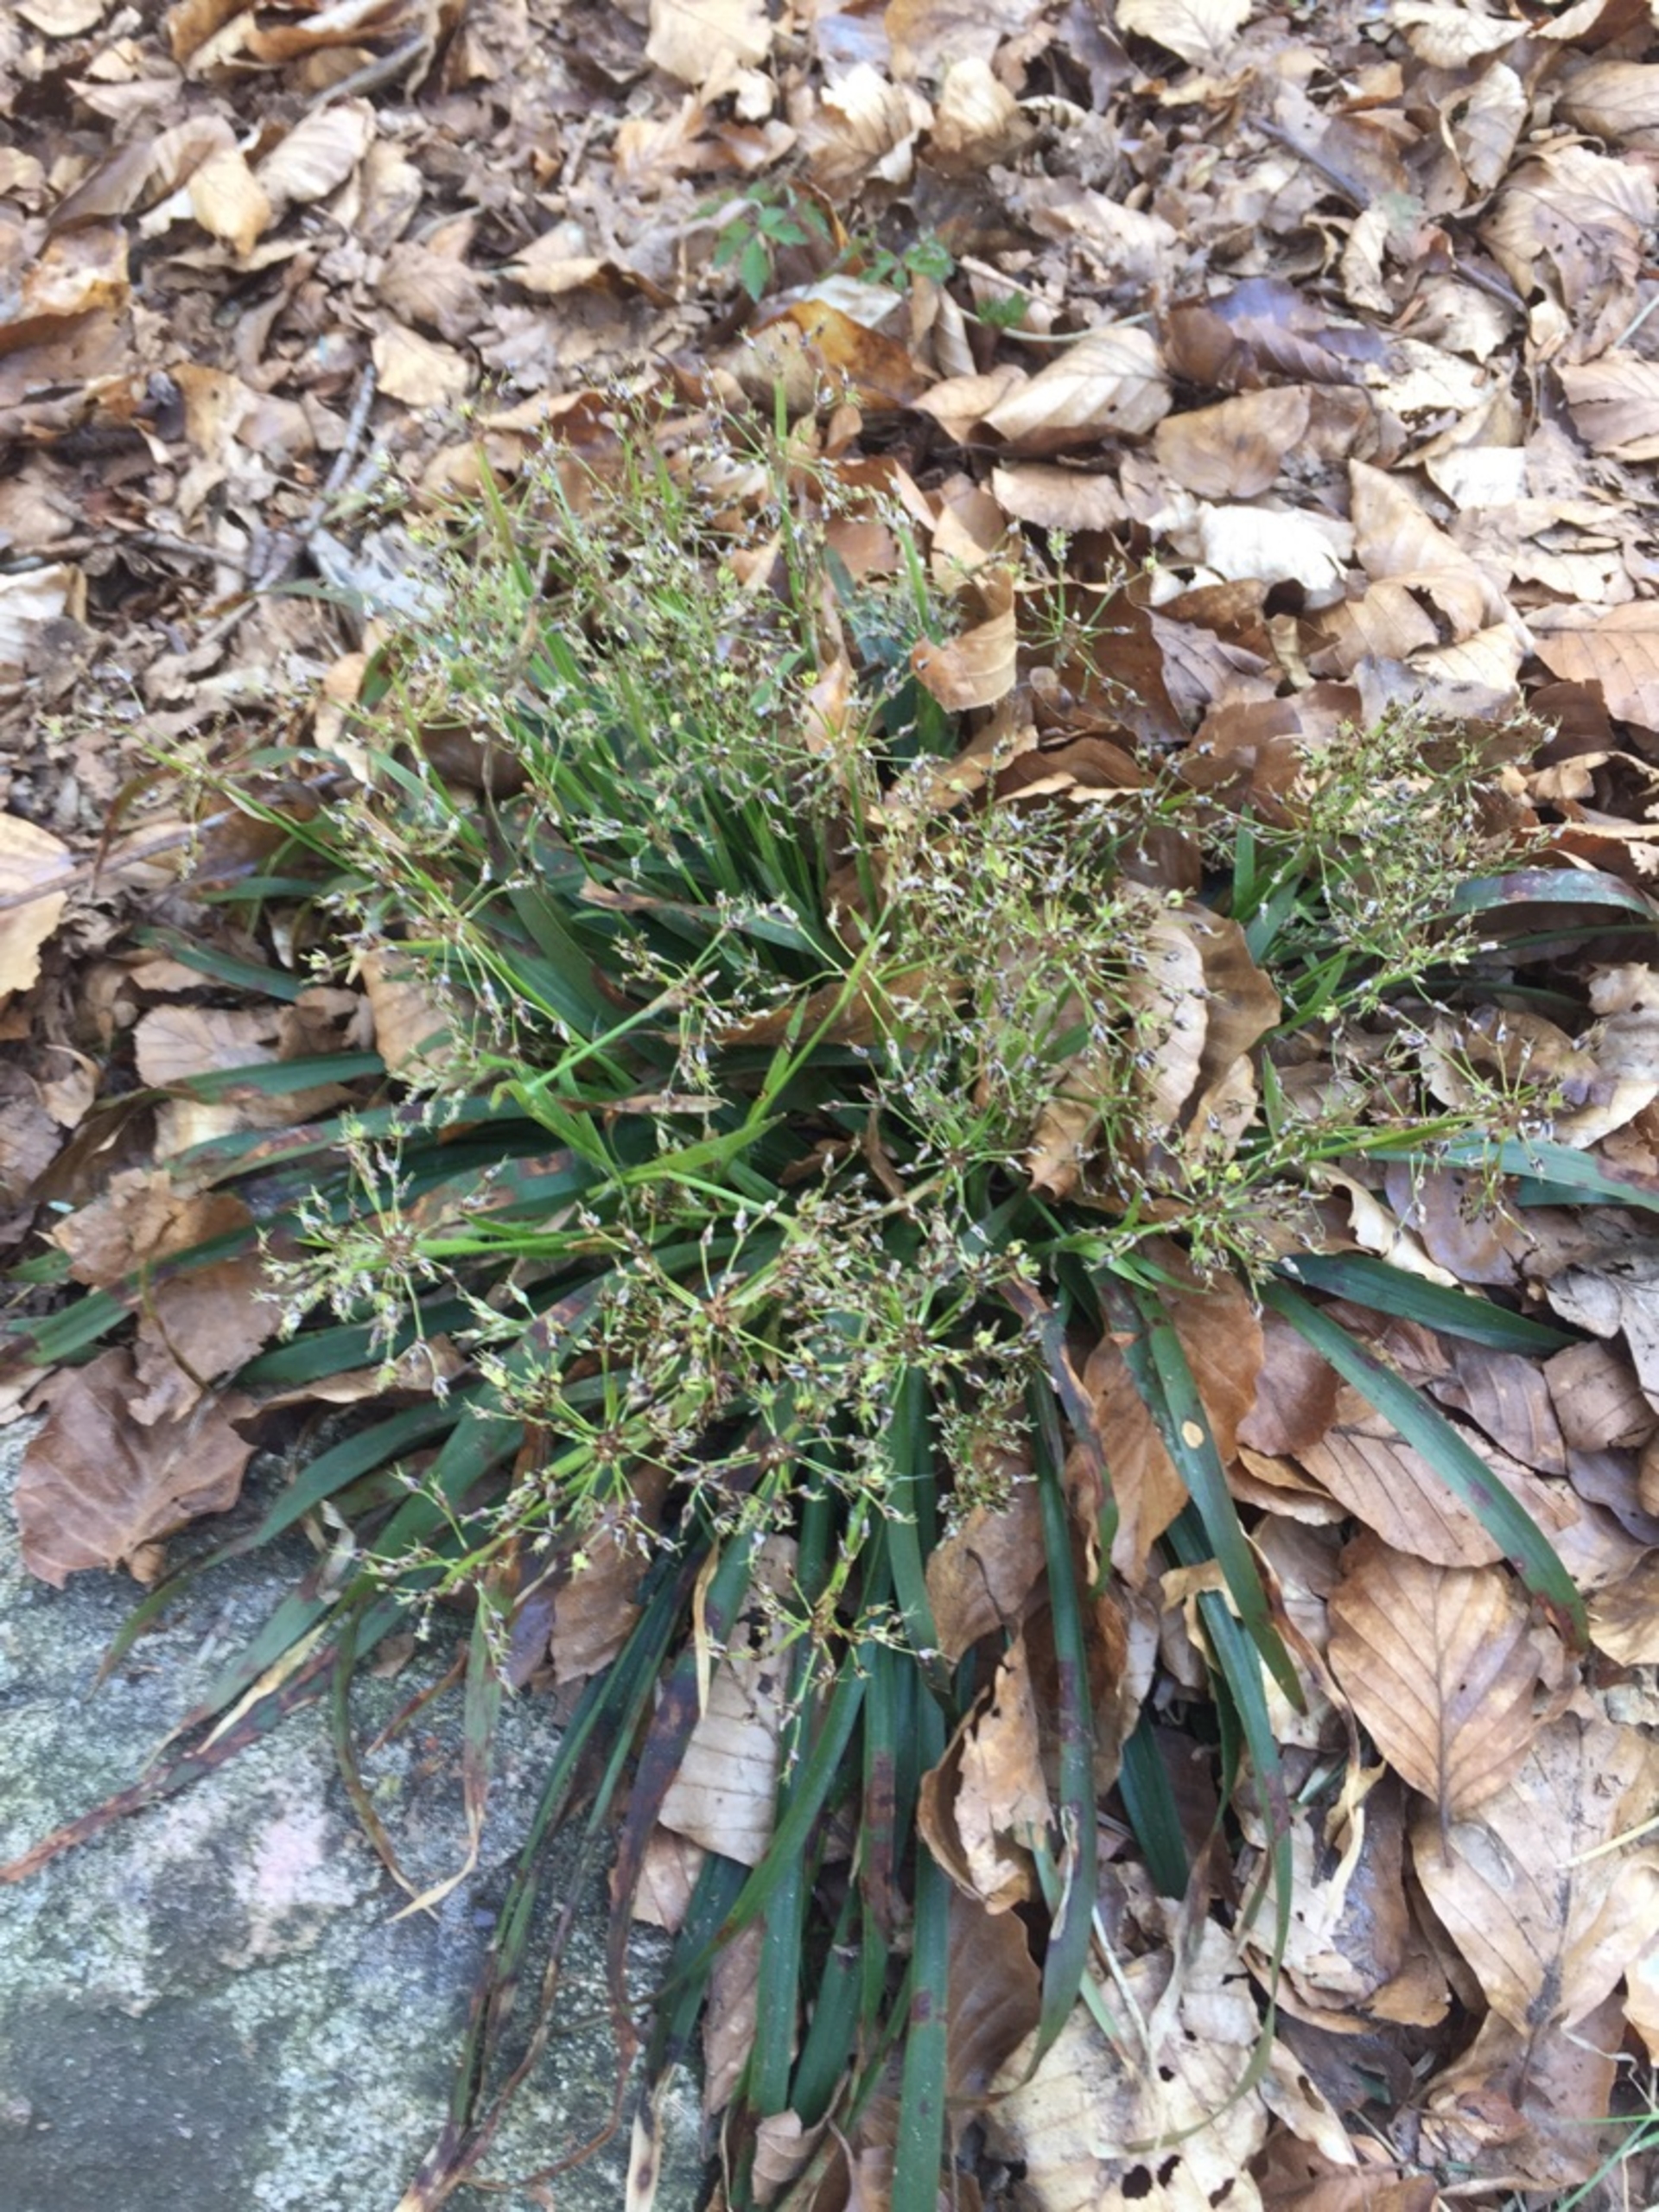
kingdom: Plantae
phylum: Tracheophyta
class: Liliopsida
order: Poales
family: Juncaceae
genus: Luzula
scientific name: Luzula pilosa
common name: Håret frytle
